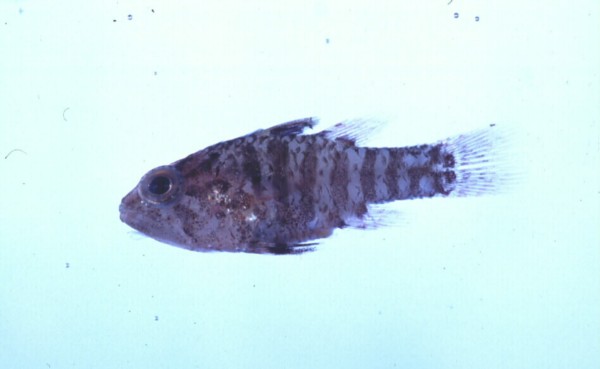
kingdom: Animalia
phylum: Chordata
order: Perciformes
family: Apogonidae
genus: Fowleria
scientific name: Fowleria vaiulae
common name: Dwarf cardinalfish
